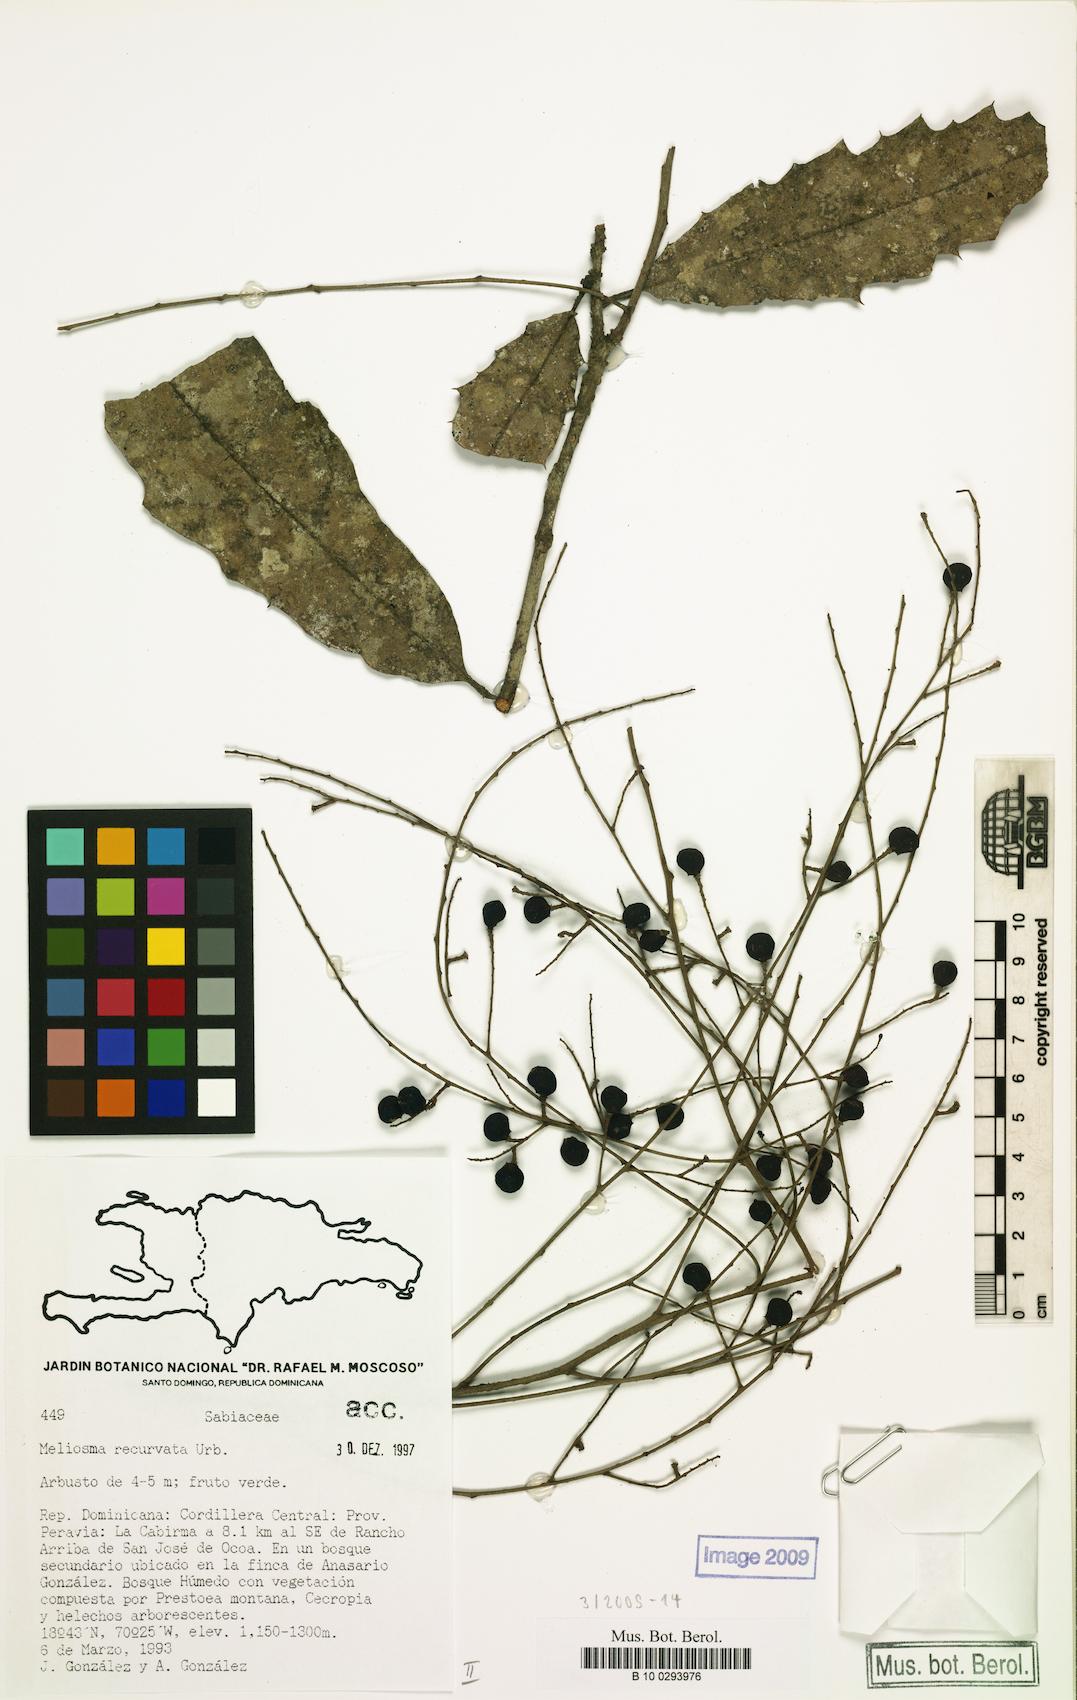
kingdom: Plantae
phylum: Tracheophyta
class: Magnoliopsida
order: Proteales
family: Sabiaceae
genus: Meliosma
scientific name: Meliosma recurvata
